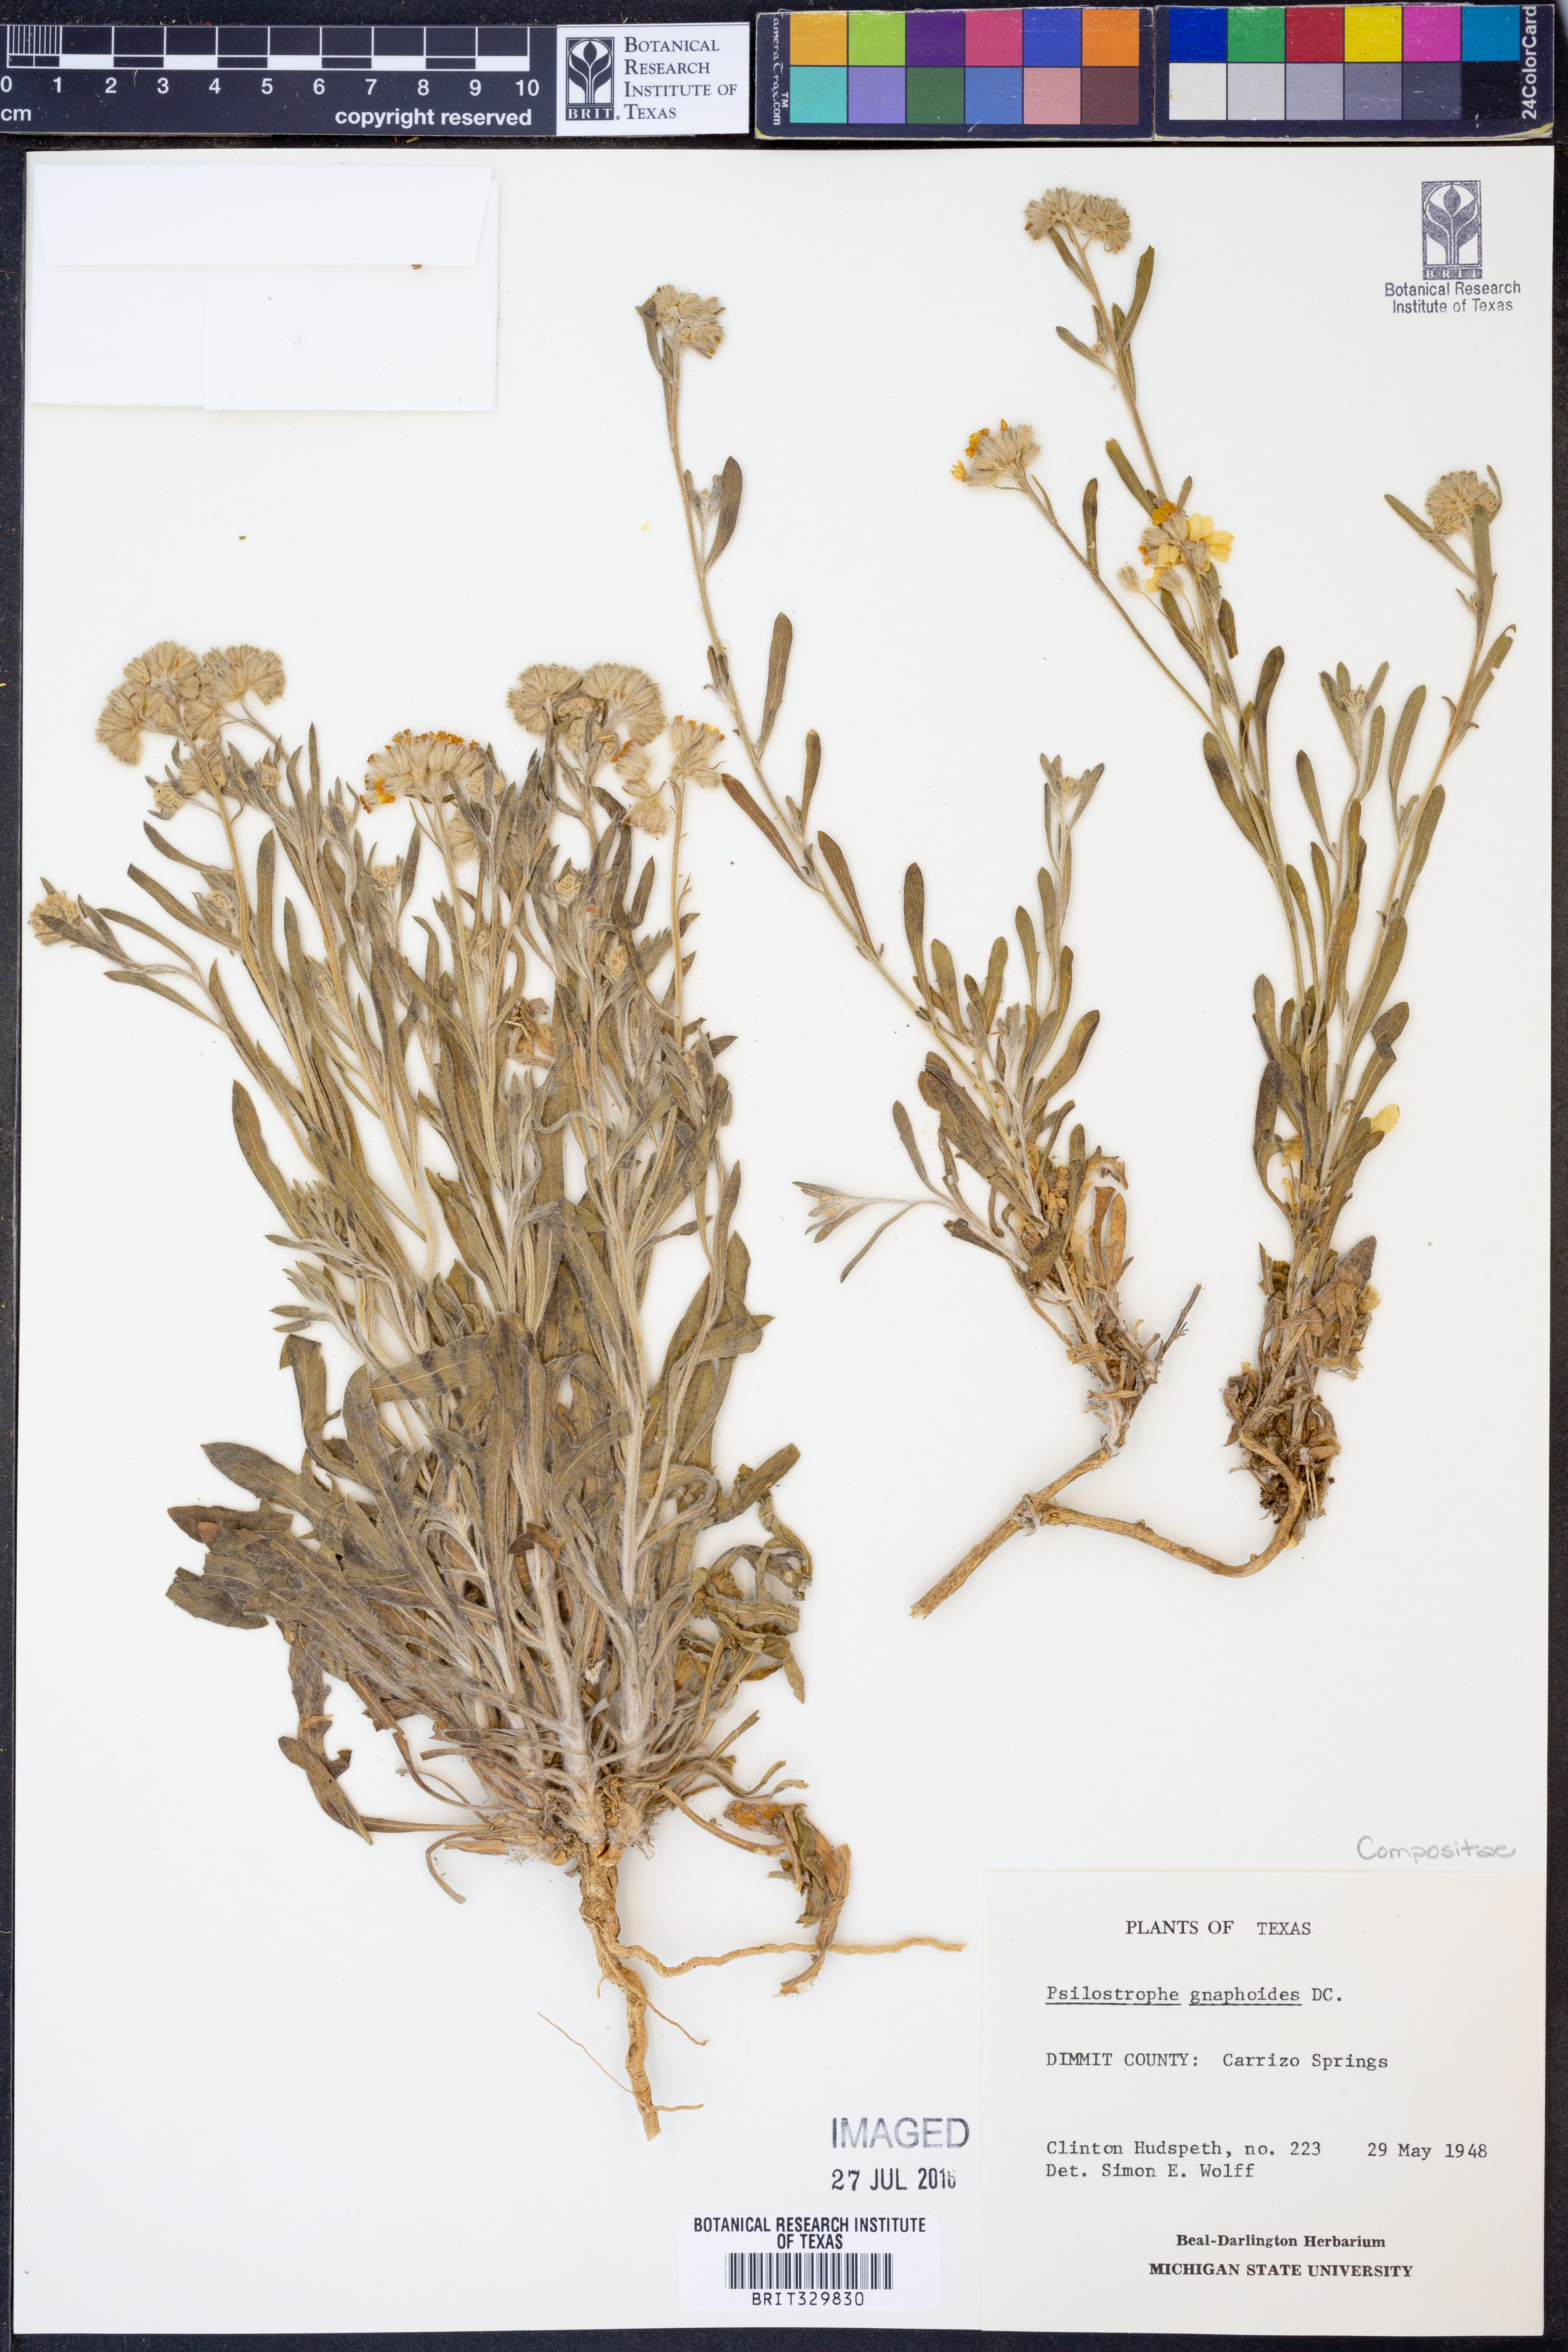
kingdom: Plantae
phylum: Tracheophyta
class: Magnoliopsida
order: Asterales
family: Asteraceae
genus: Psilostrophe
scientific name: Psilostrophe gnaphalioides
